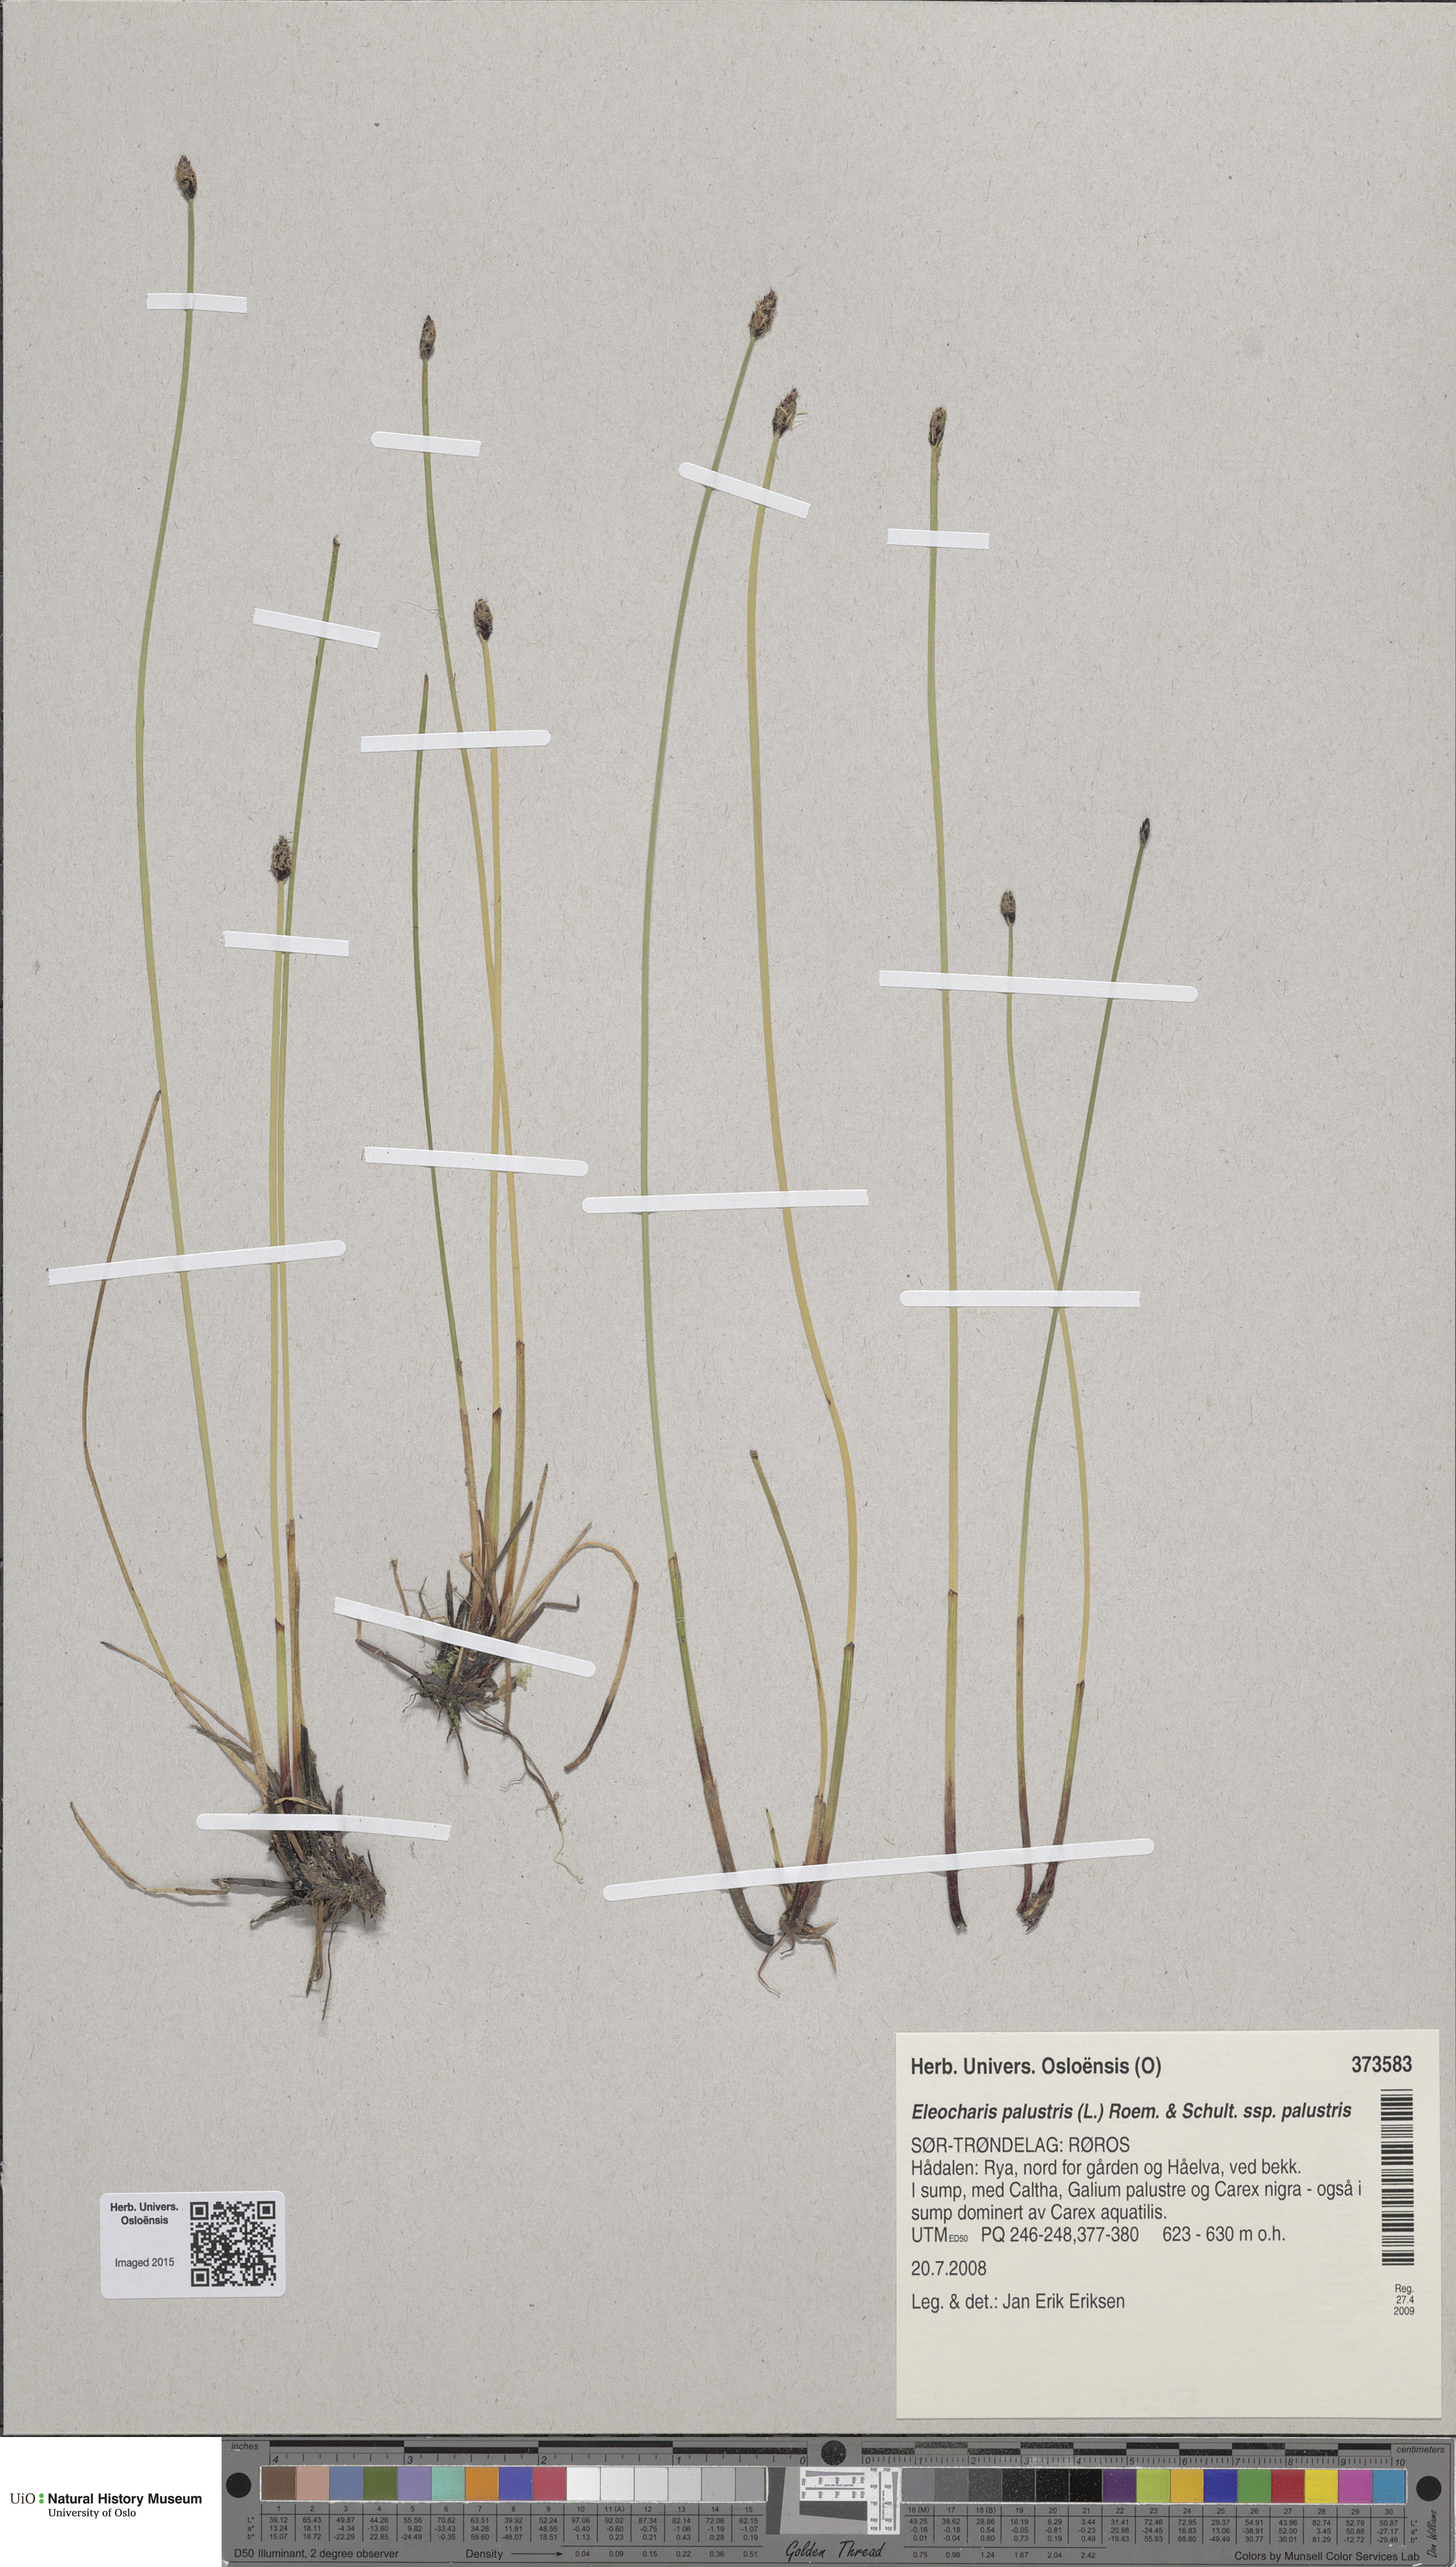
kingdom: Plantae
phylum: Tracheophyta
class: Liliopsida
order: Poales
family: Cyperaceae
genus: Eleocharis
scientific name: Eleocharis palustris
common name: Common spike-rush
